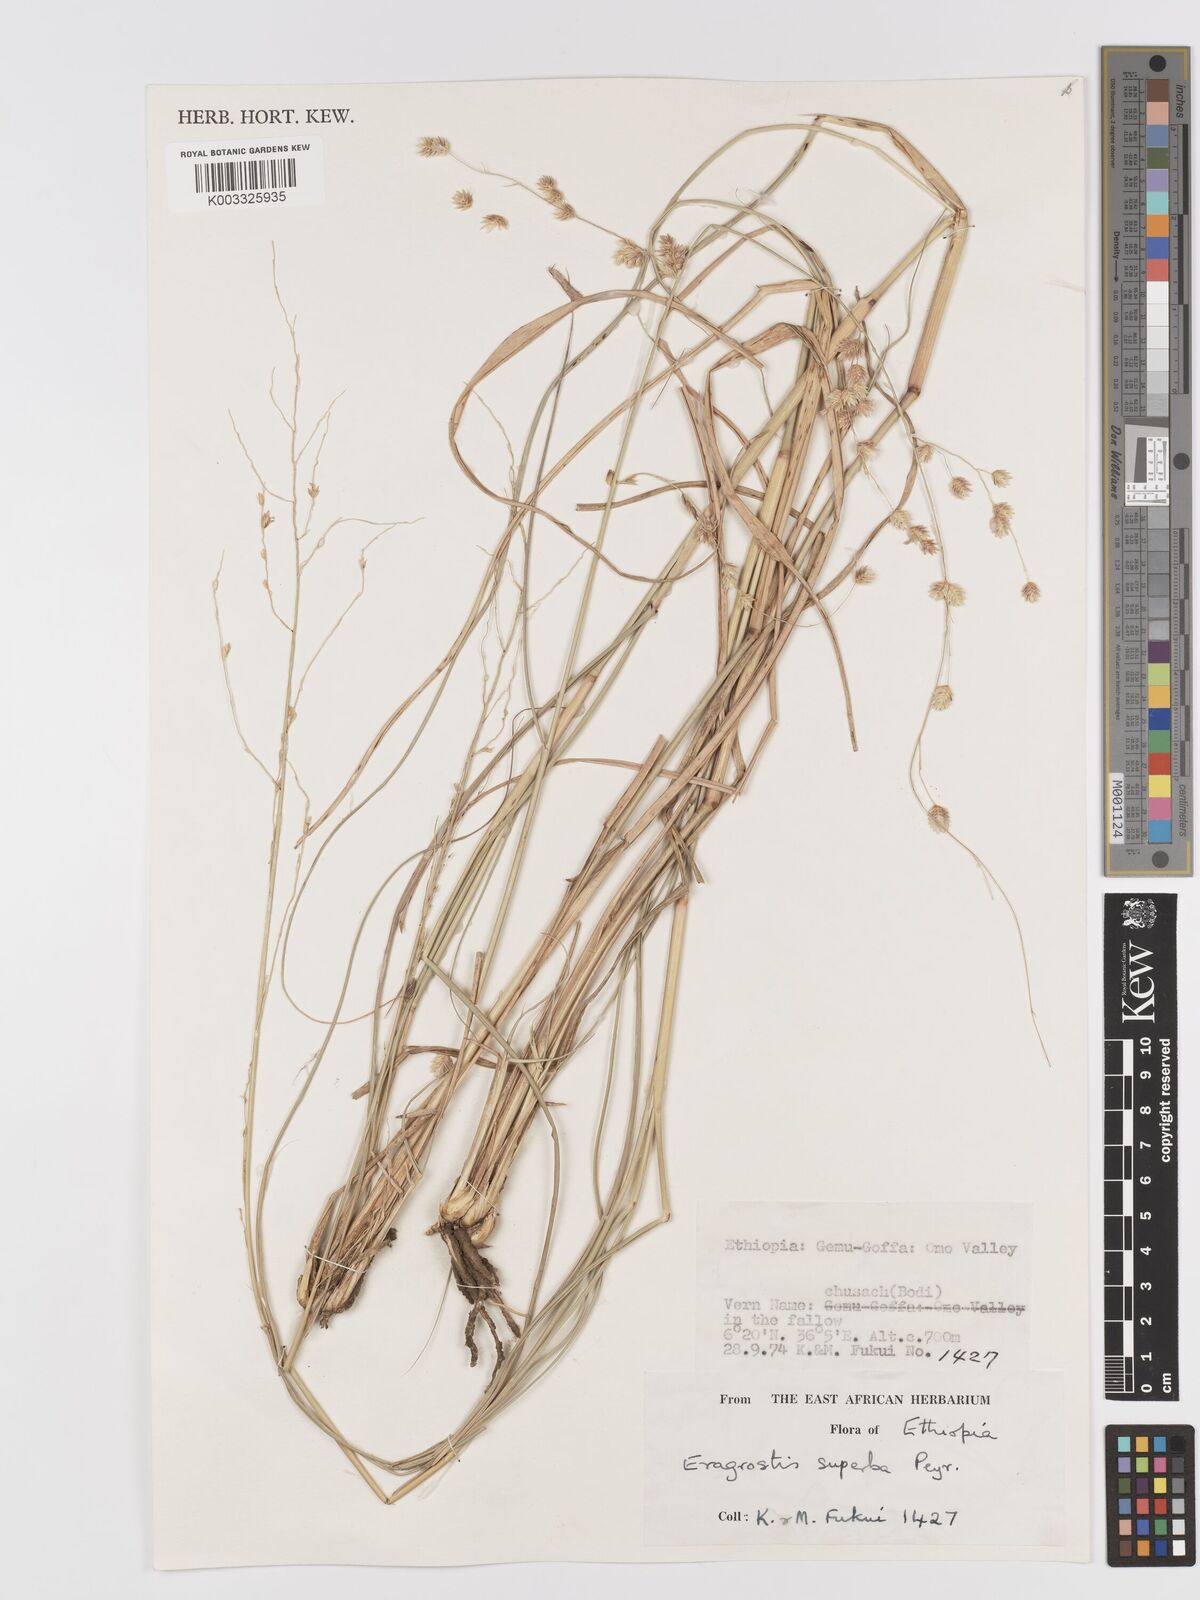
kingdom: Plantae
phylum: Tracheophyta
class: Liliopsida
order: Poales
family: Poaceae
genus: Eragrostis
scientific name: Eragrostis superba
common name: Wilman lovegrass
